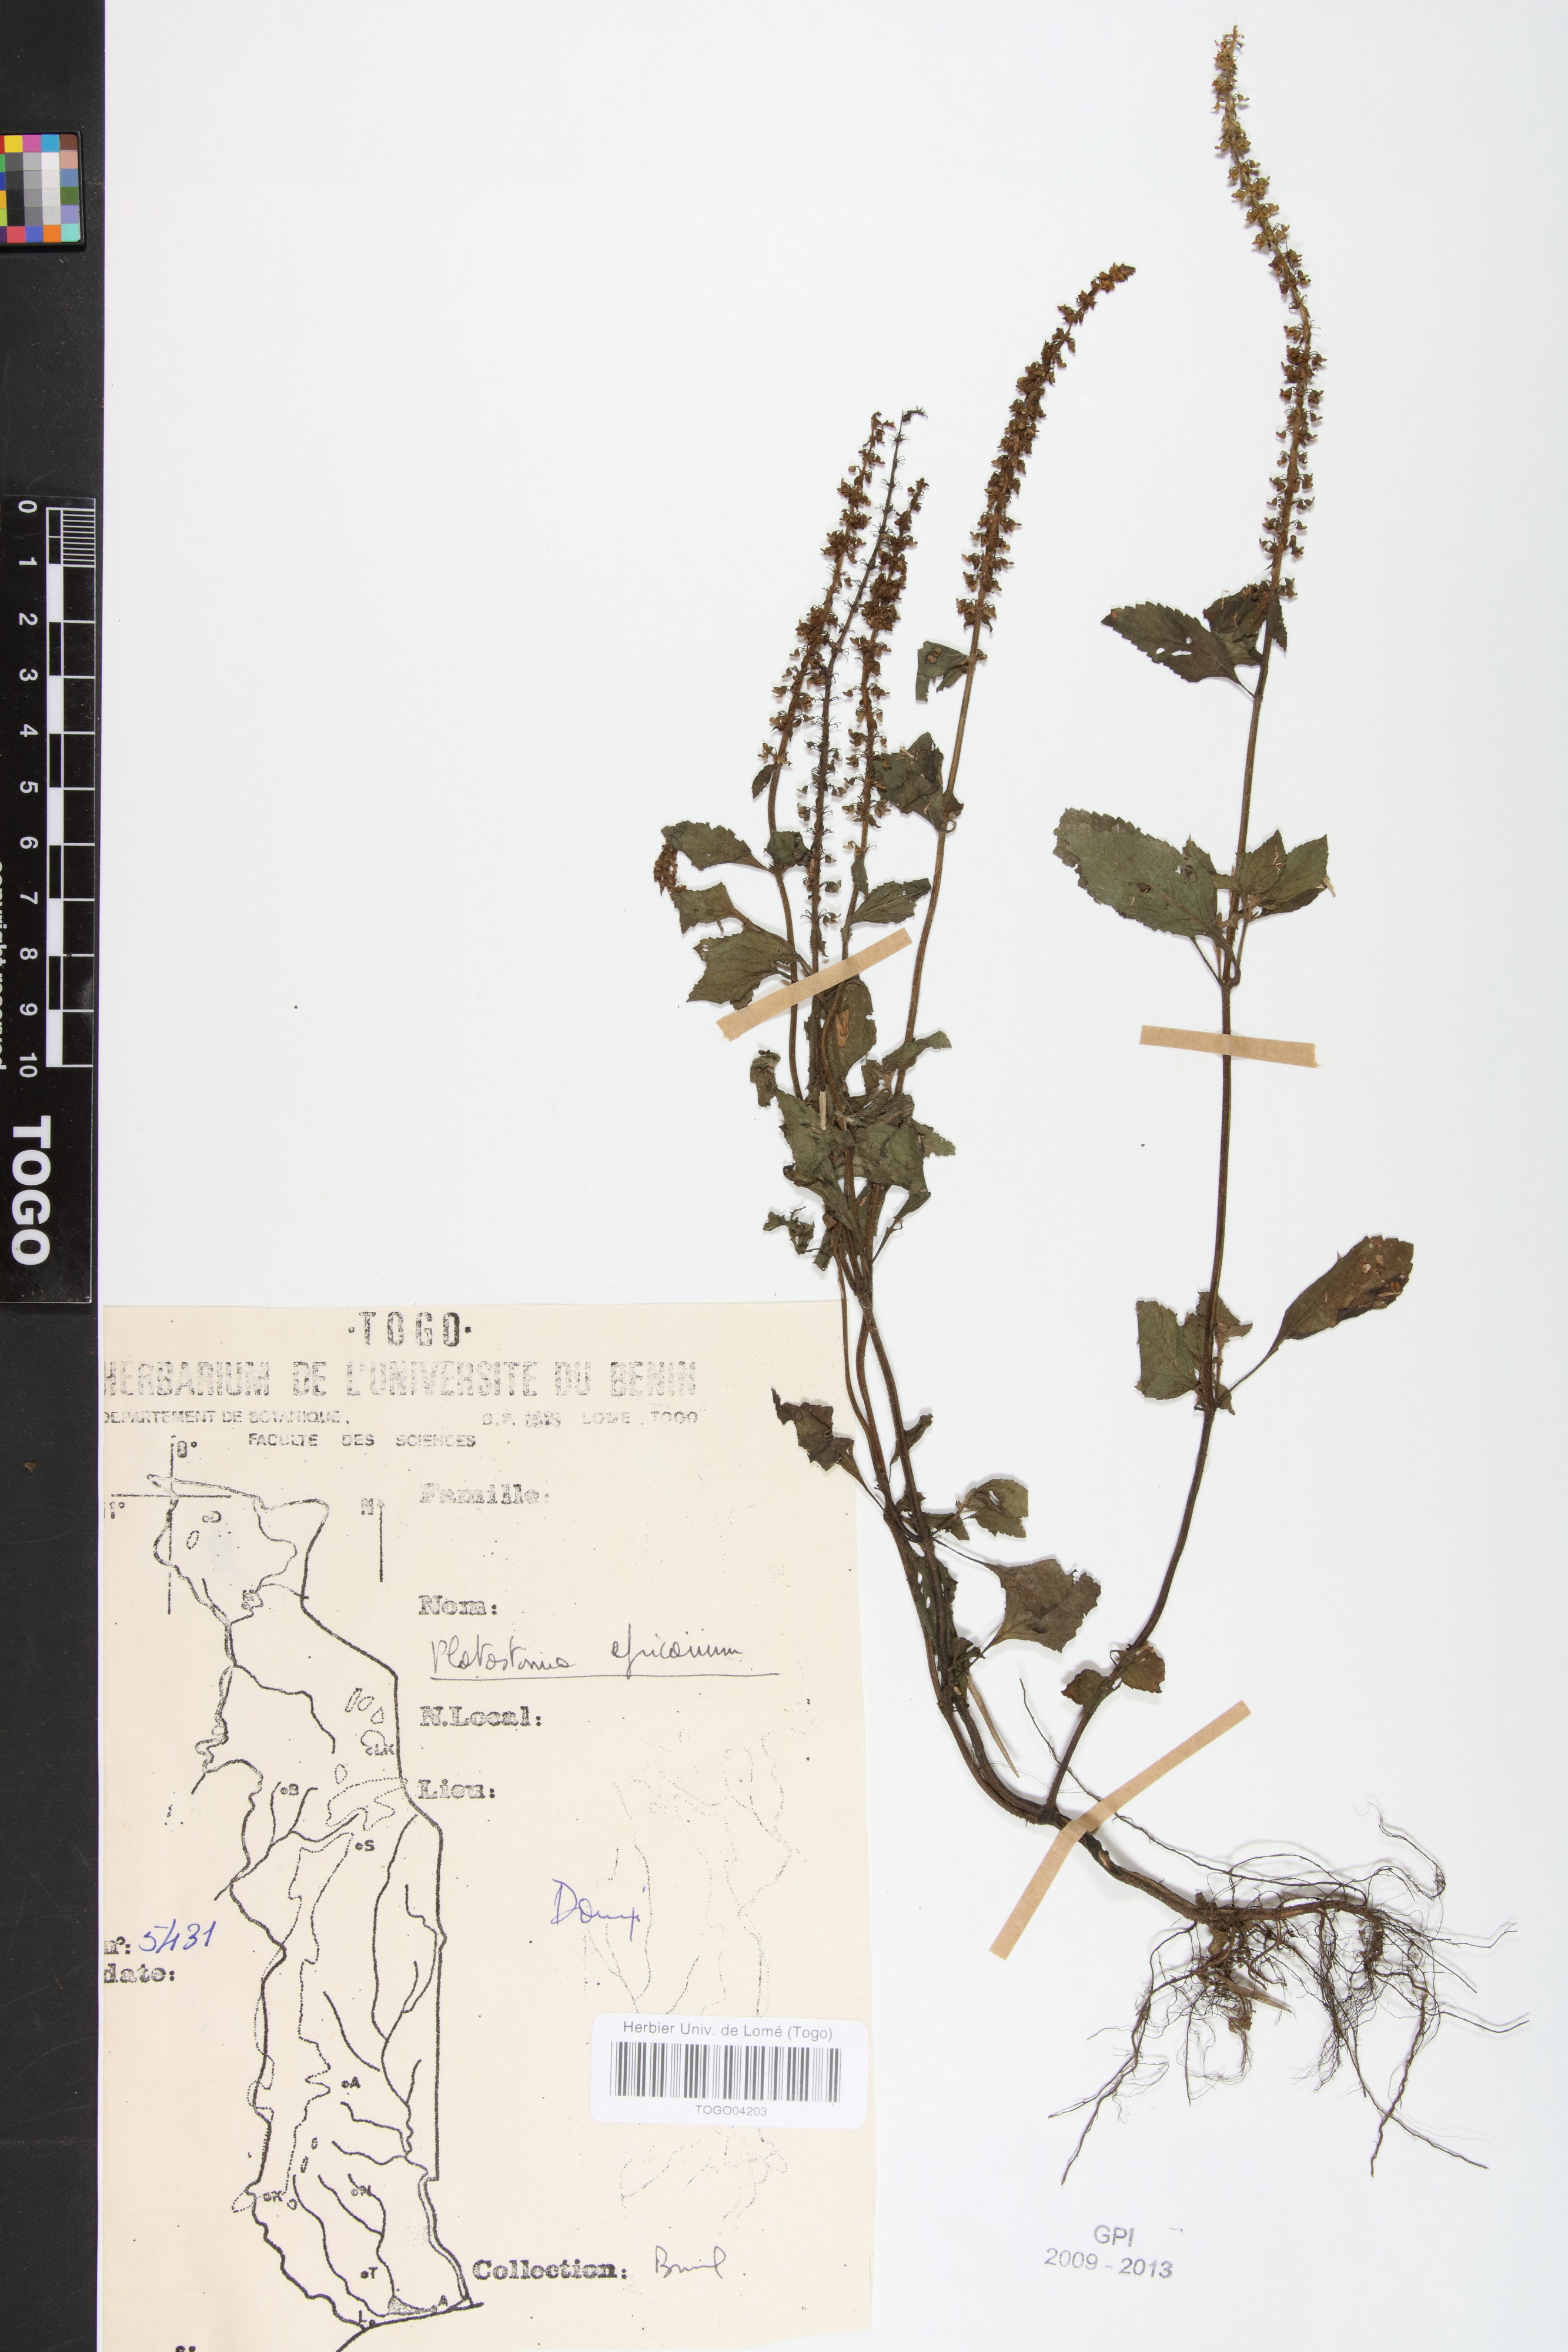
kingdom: Plantae
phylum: Tracheophyta
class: Magnoliopsida
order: Lamiales
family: Lamiaceae
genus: Platostoma
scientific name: Platostoma africanum
